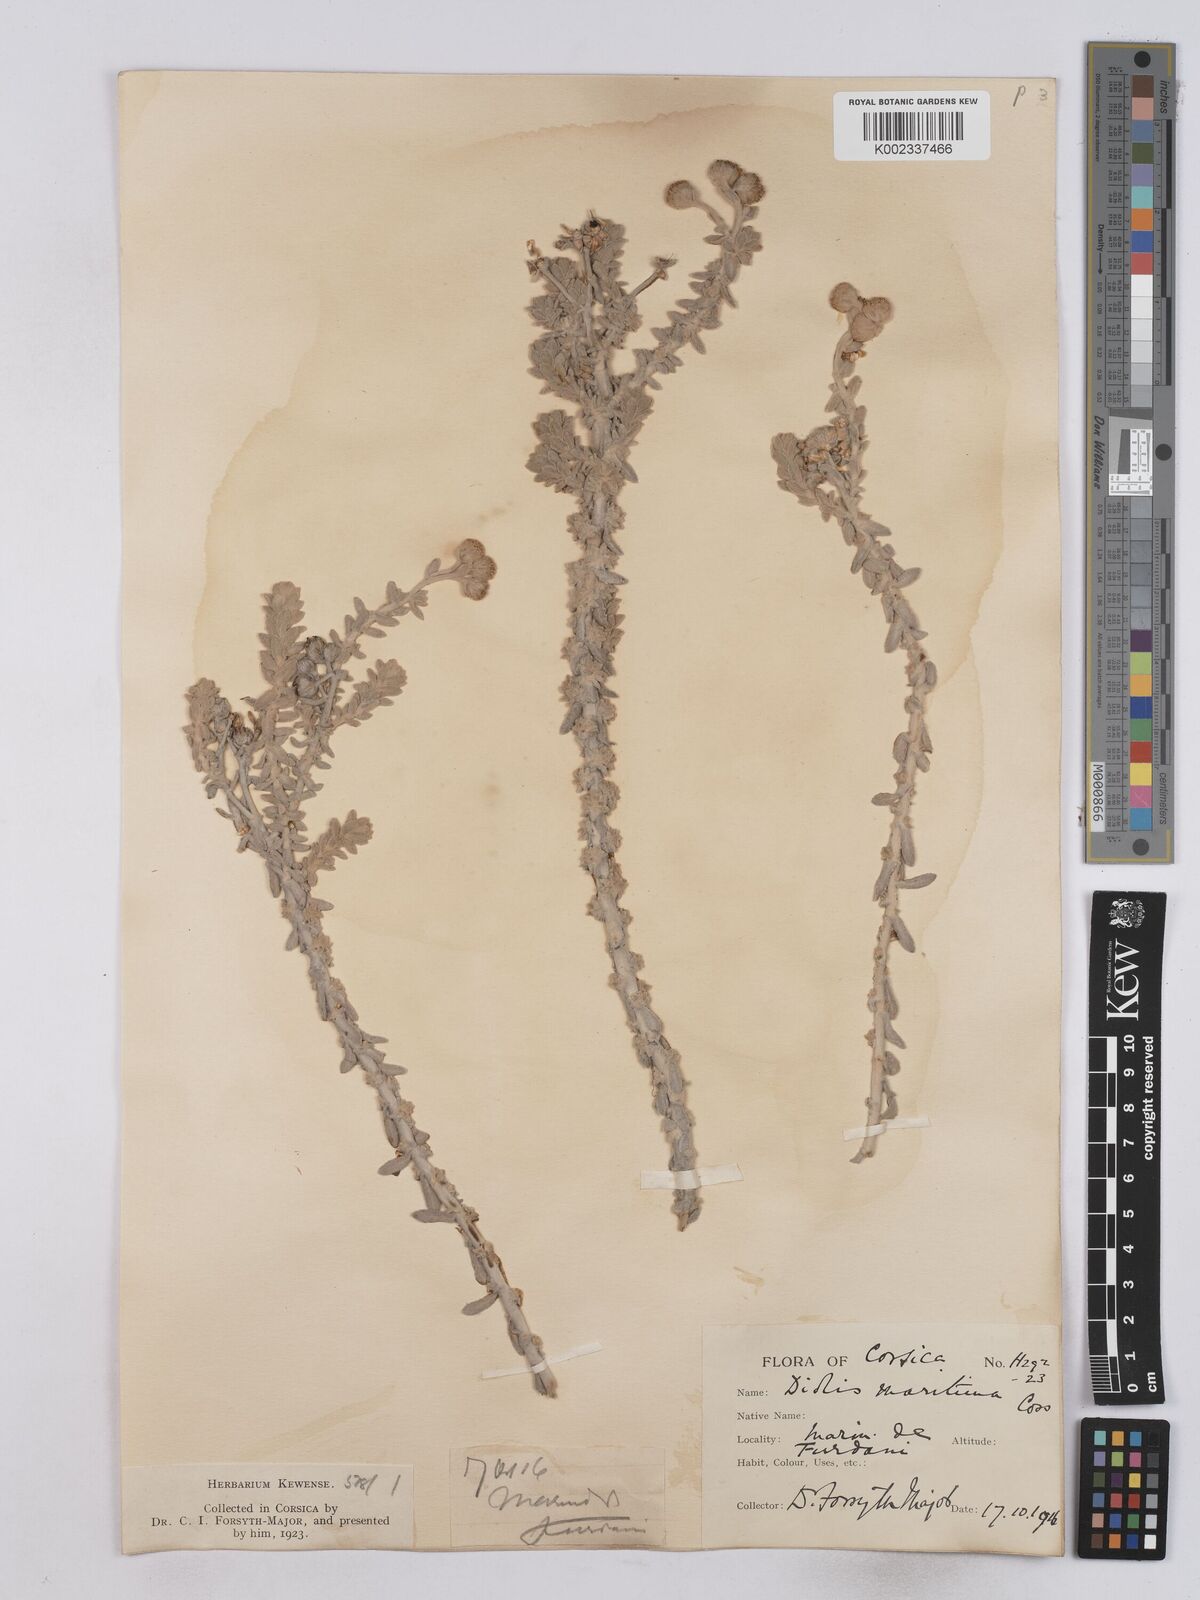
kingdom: Plantae
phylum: Tracheophyta
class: Magnoliopsida
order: Asterales
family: Asteraceae
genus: Achillea
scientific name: Achillea maritima
